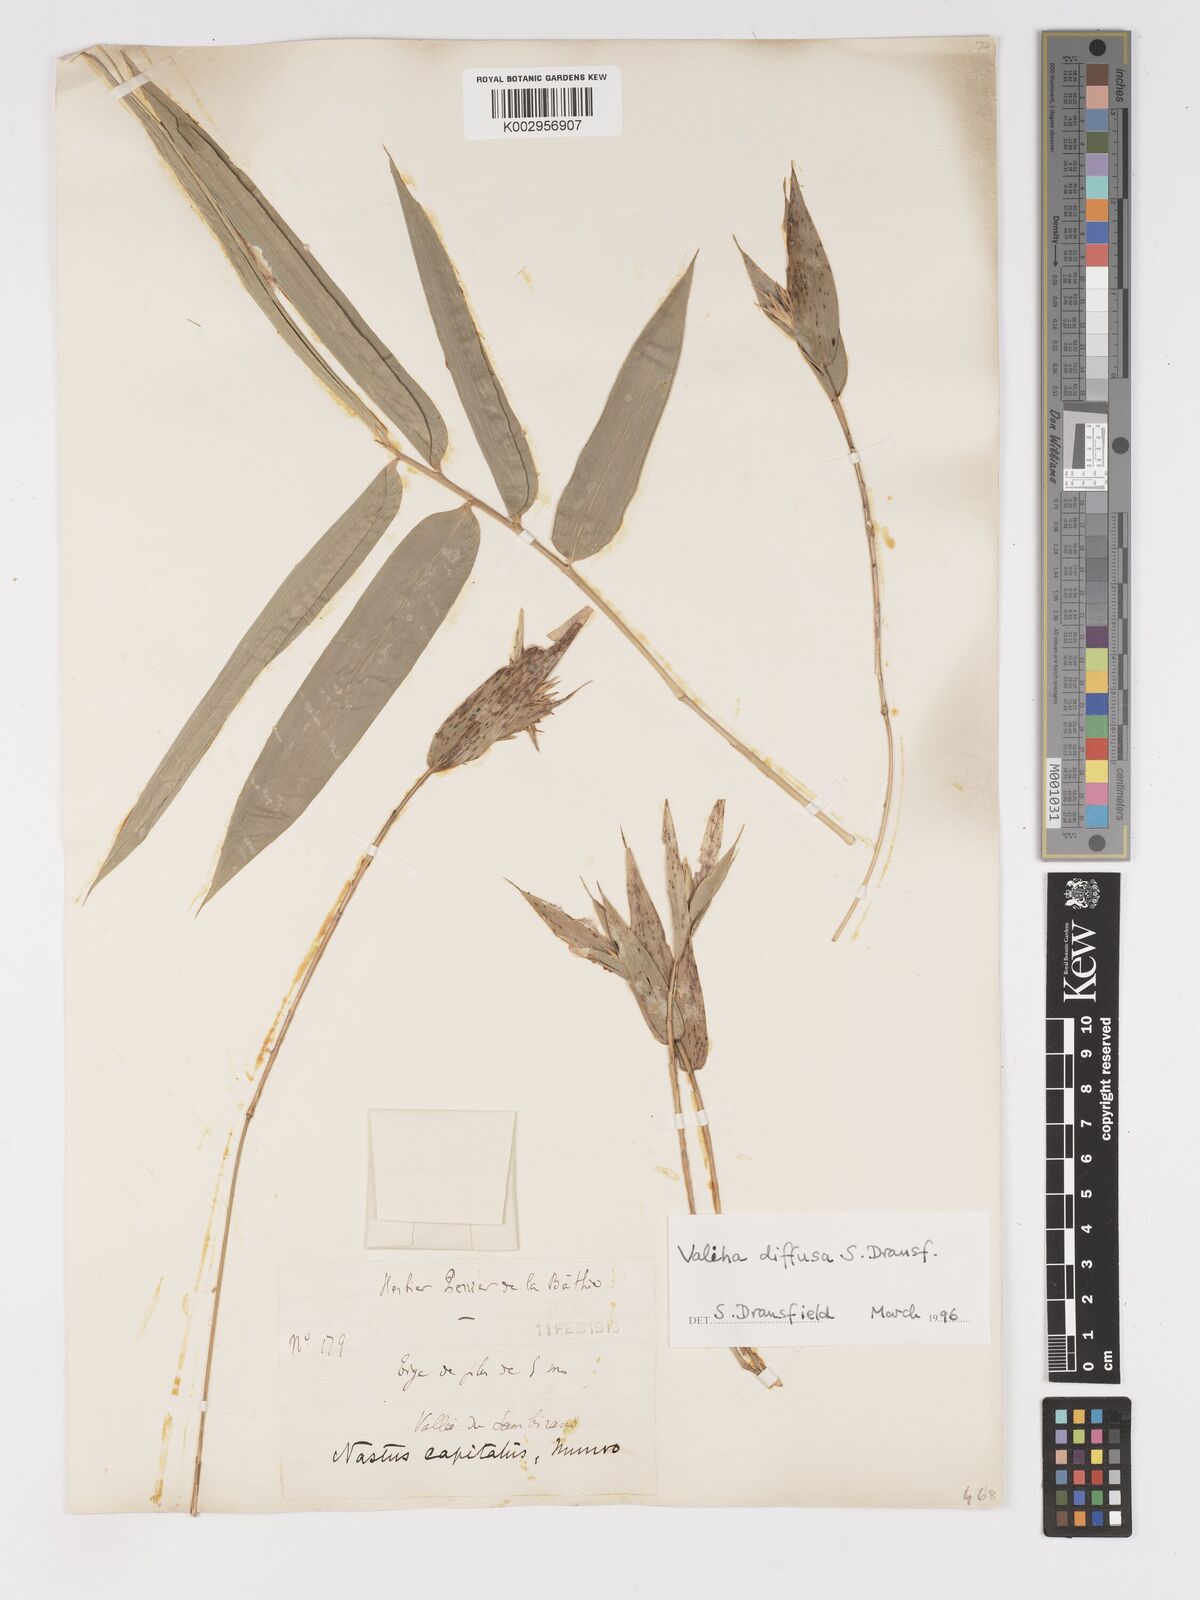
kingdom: Plantae
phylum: Tracheophyta
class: Liliopsida
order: Poales
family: Poaceae
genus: Valiha
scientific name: Valiha diffusa
